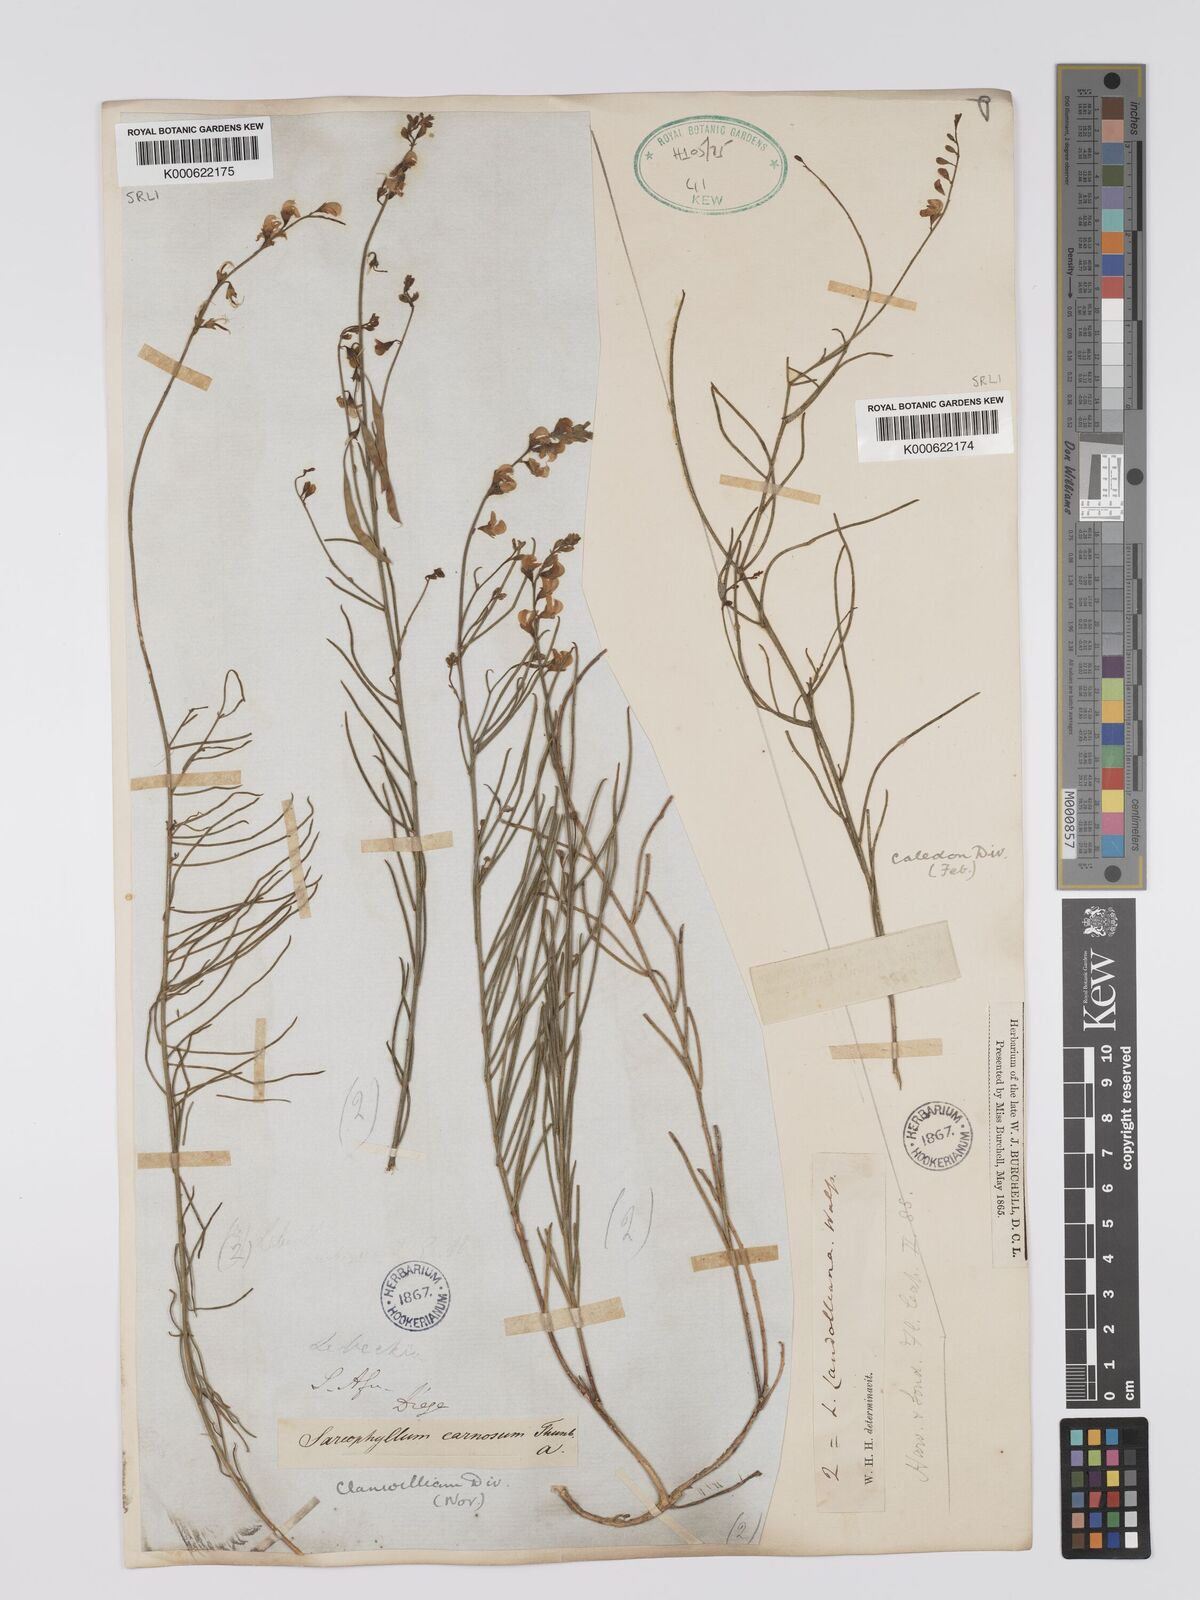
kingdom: Plantae
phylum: Tracheophyta
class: Magnoliopsida
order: Fabales
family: Fabaceae
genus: Lebeckia
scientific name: Lebeckia contaminata
